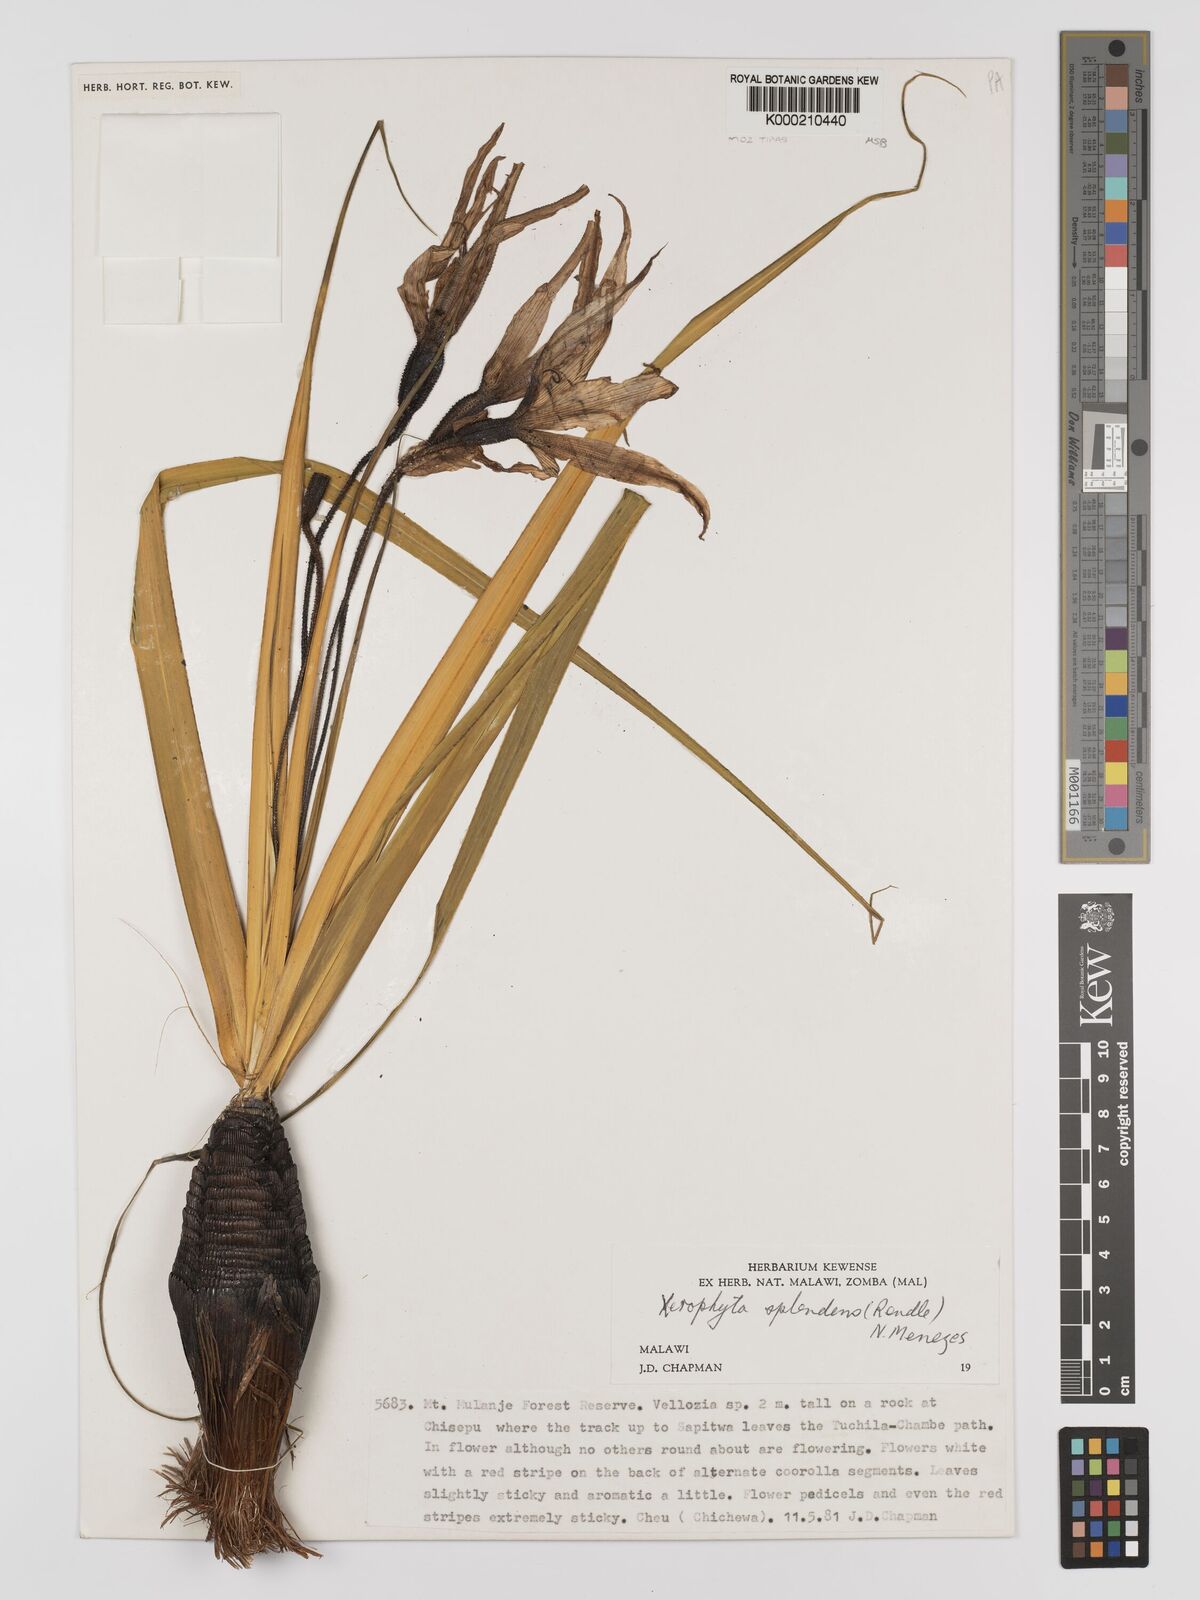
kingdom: Plantae
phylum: Tracheophyta
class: Liliopsida
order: Pandanales
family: Velloziaceae
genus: Xerophyta
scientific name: Xerophyta splendens
